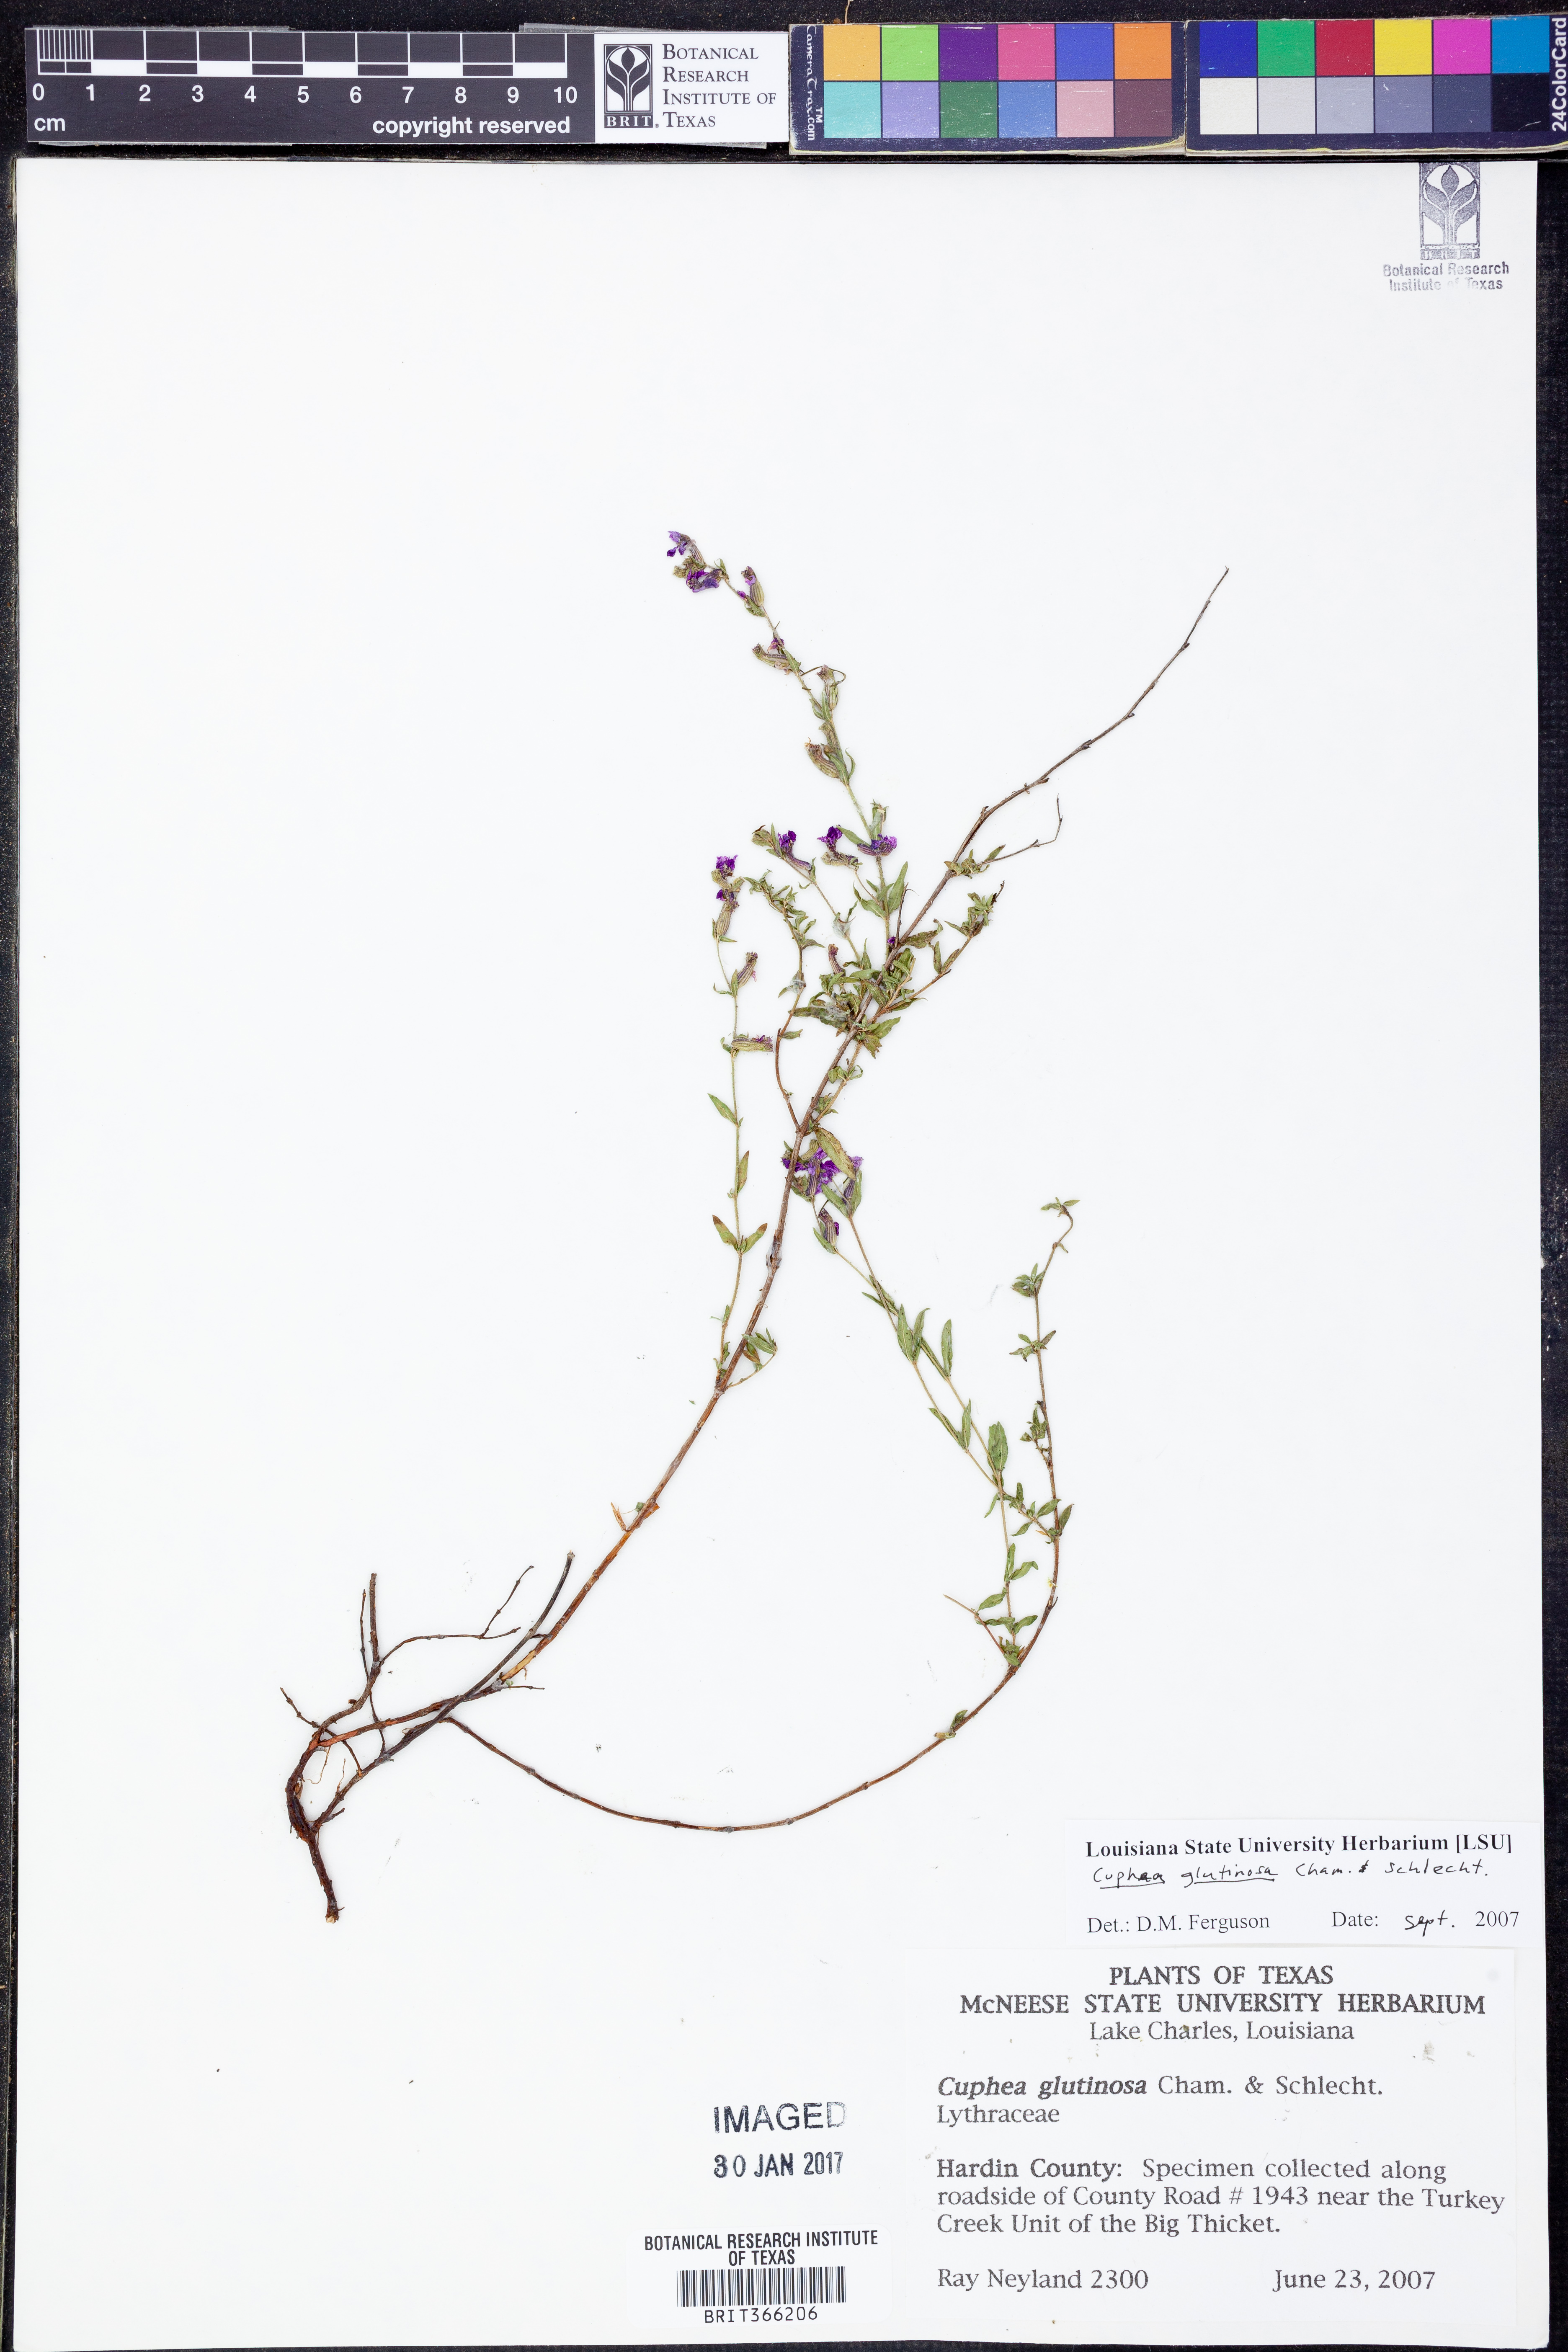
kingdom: Plantae
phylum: Tracheophyta
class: Magnoliopsida
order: Myrtales
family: Lythraceae
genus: Cuphea
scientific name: Cuphea glutinosa
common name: Sticky waxweed
